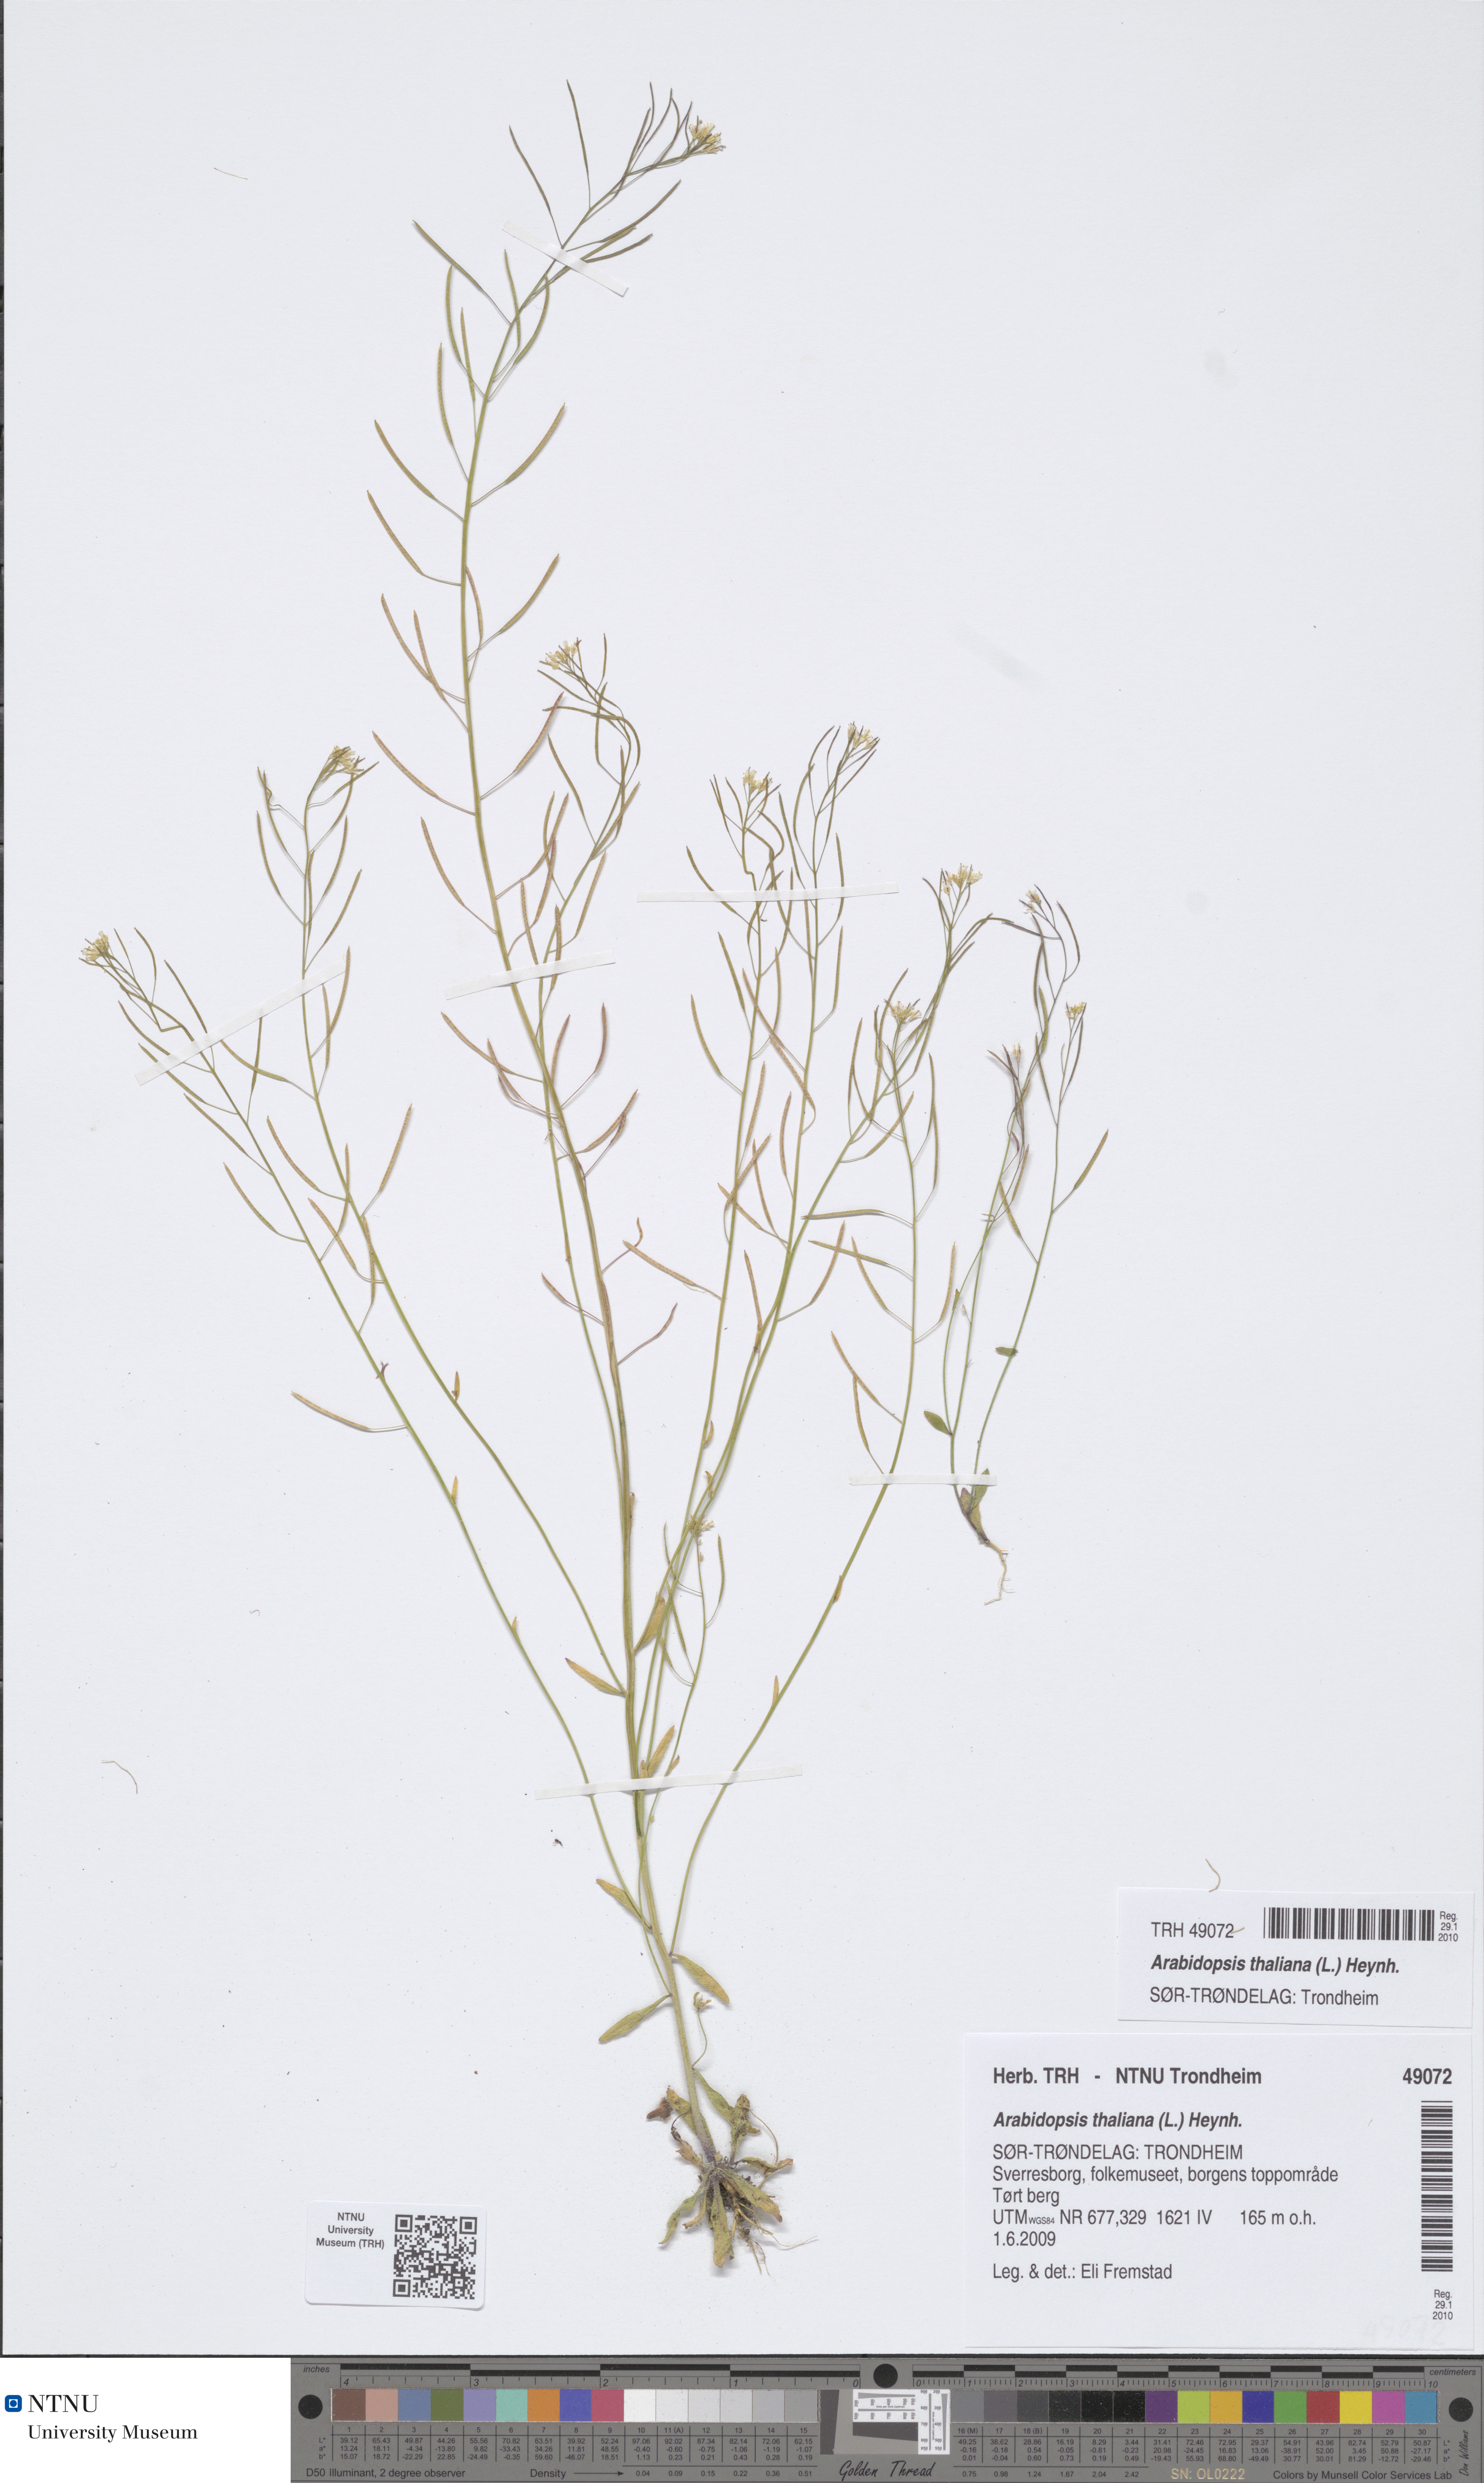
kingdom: Plantae
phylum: Tracheophyta
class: Magnoliopsida
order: Brassicales
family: Brassicaceae
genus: Arabidopsis
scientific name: Arabidopsis thaliana
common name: Thale cress
